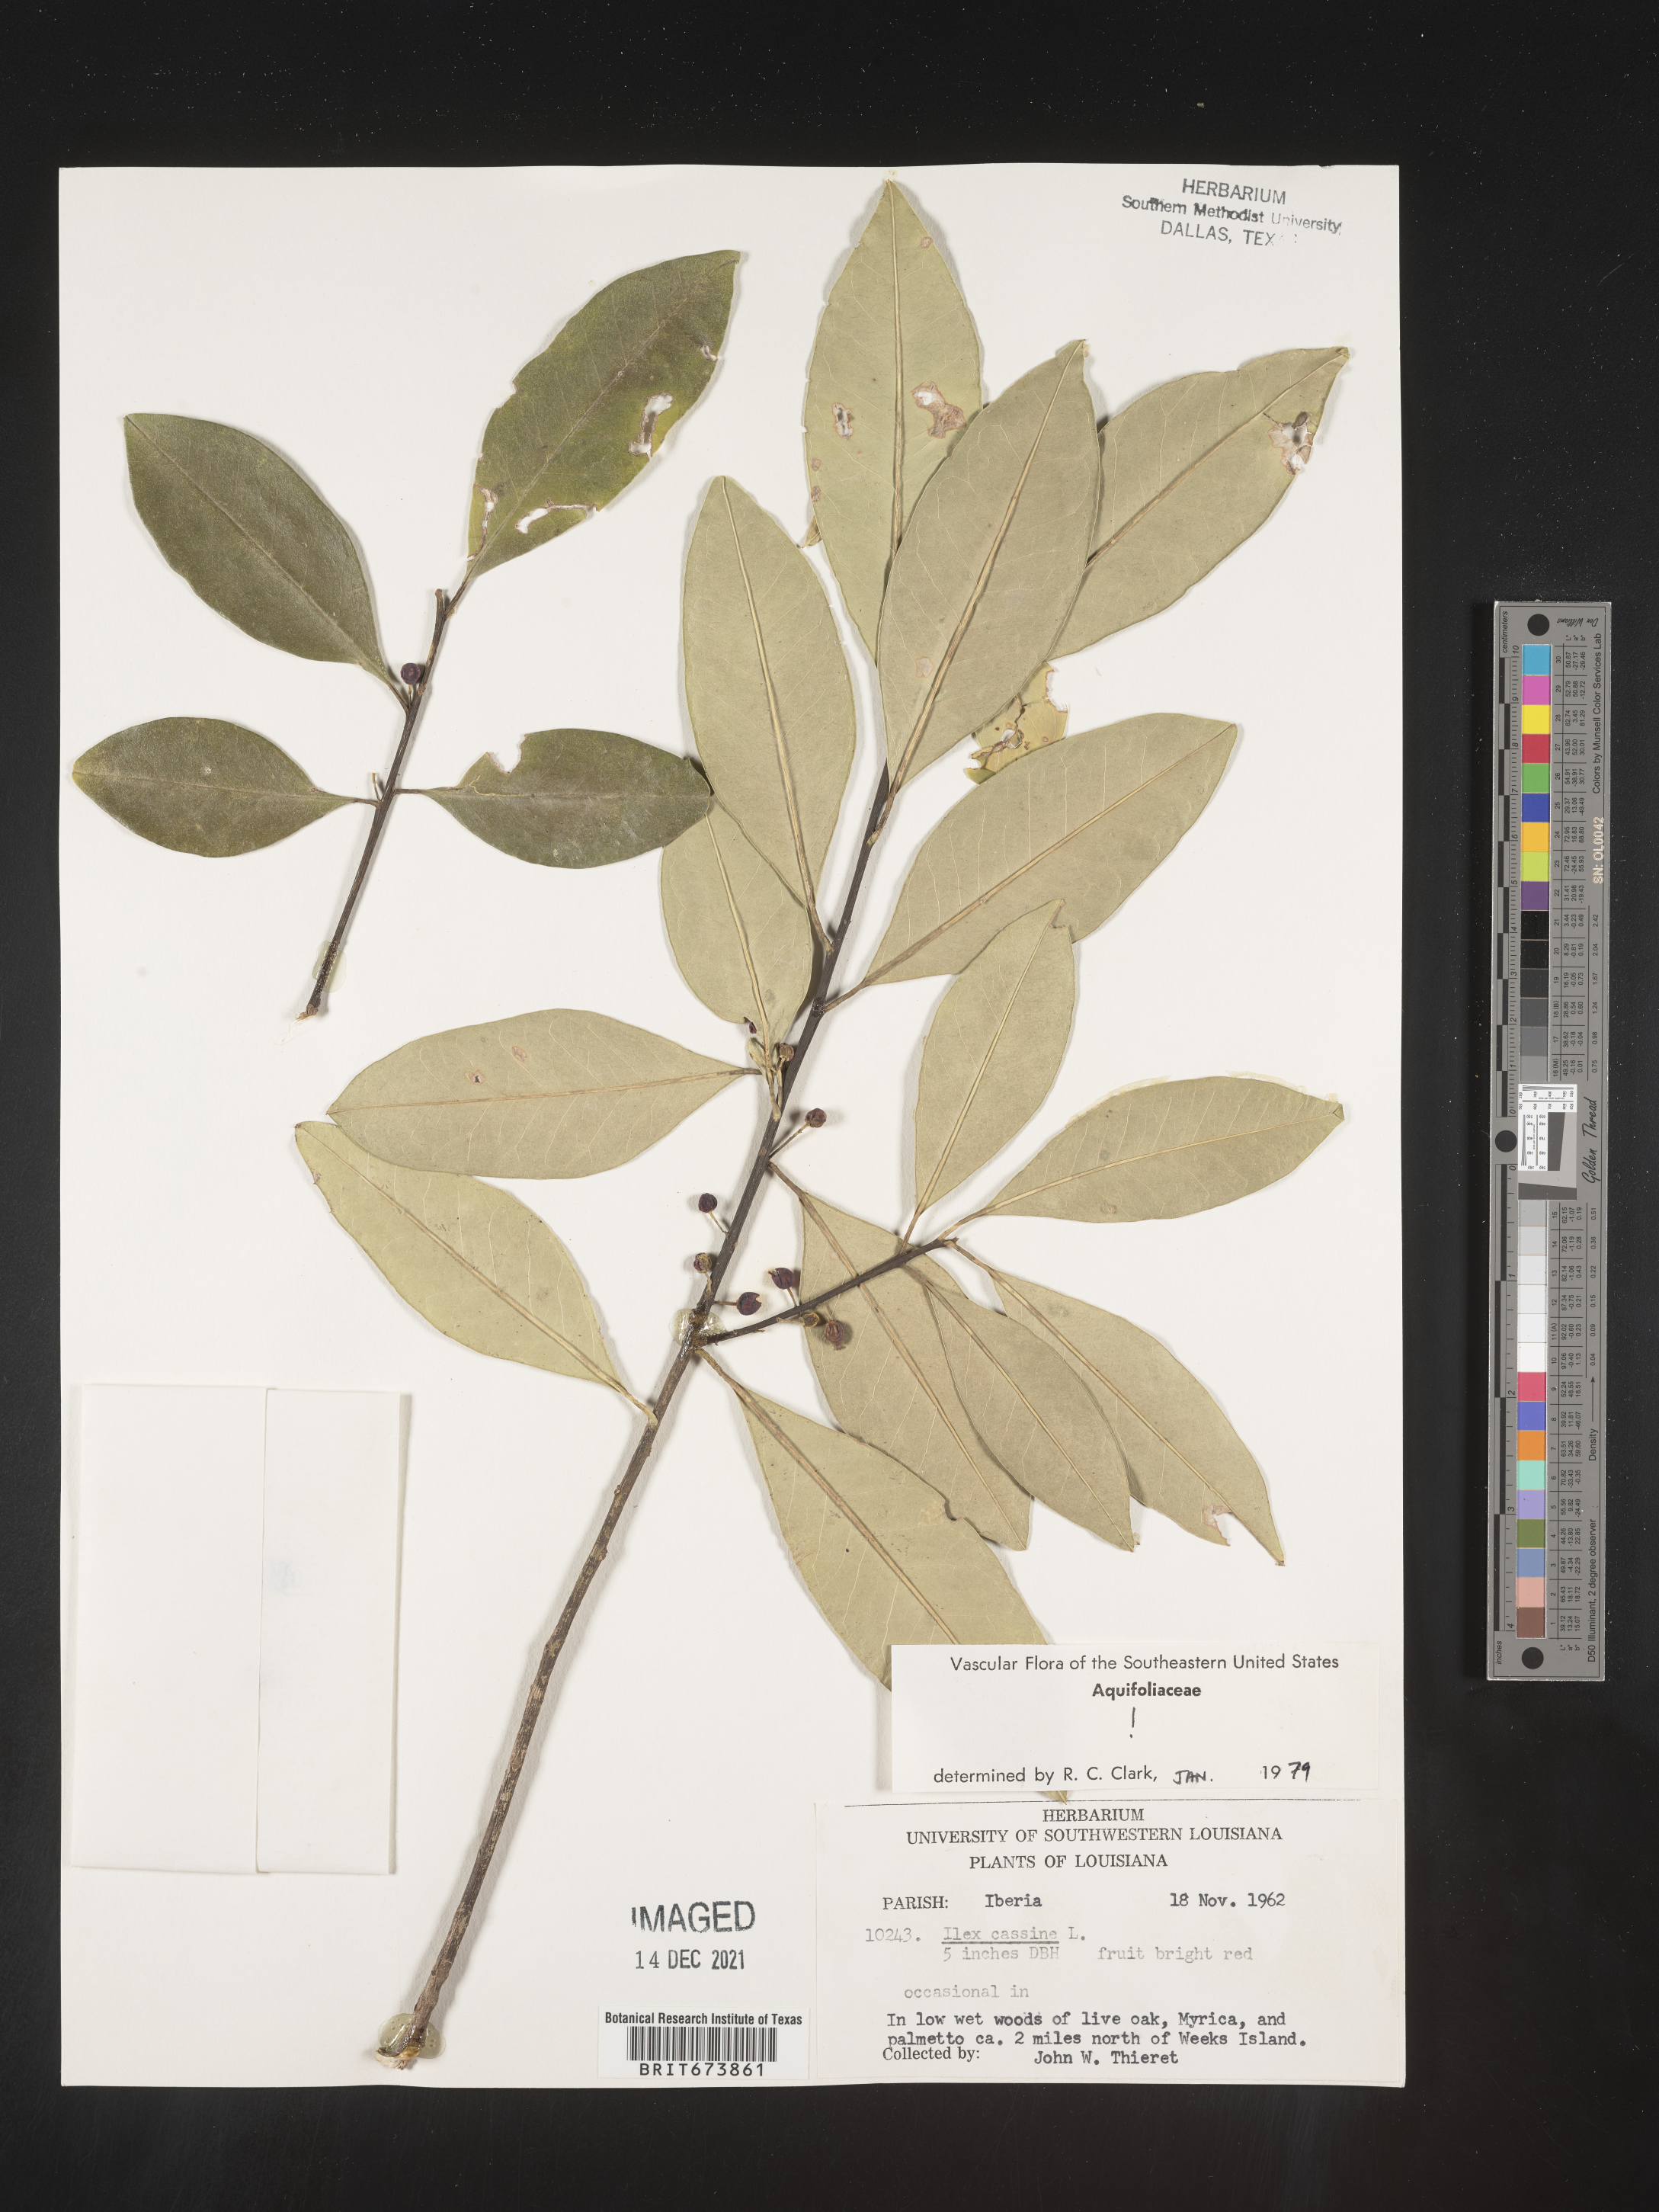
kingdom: Plantae
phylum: Tracheophyta
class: Magnoliopsida
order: Aquifoliales
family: Aquifoliaceae
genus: Ilex
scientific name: Ilex cassine
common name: Dahoon
